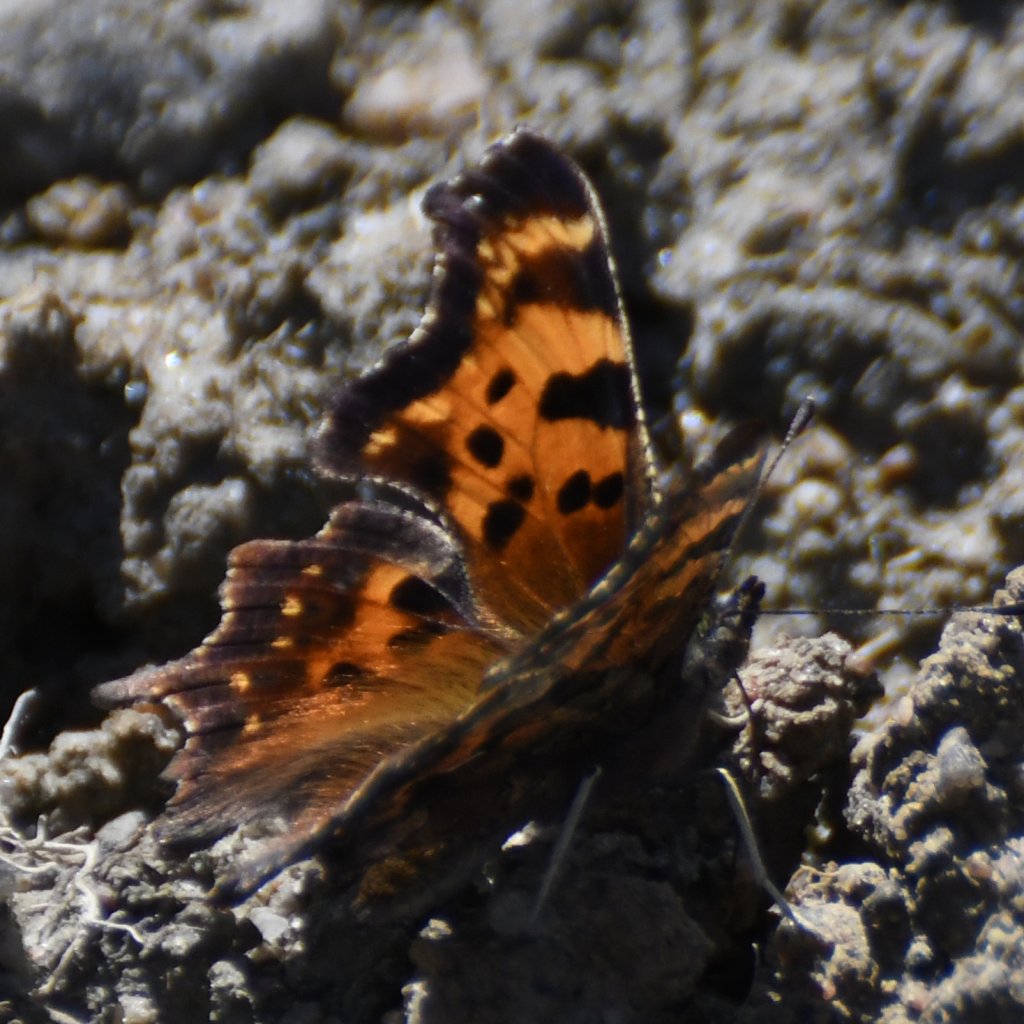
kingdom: Animalia
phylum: Arthropoda
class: Insecta
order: Lepidoptera
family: Nymphalidae
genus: Polygonia
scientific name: Polygonia faunus
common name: Green Comma
